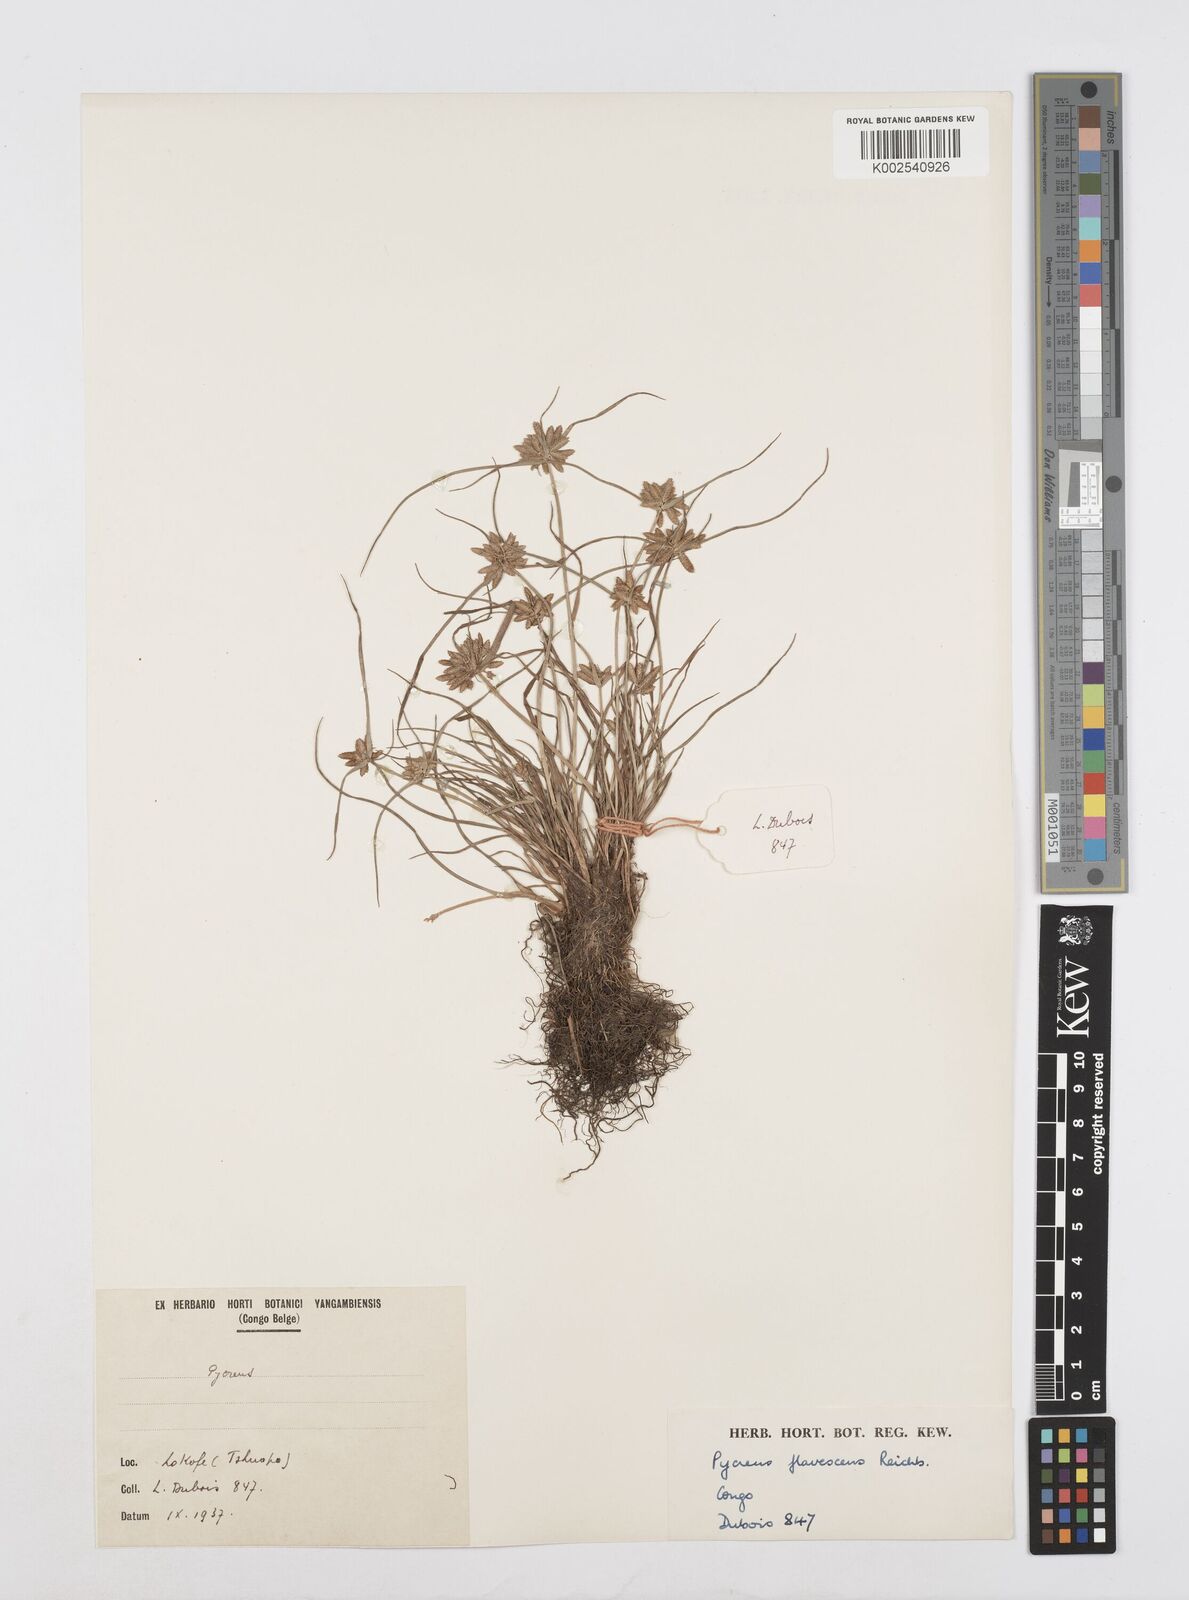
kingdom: Plantae
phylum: Tracheophyta
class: Liliopsida
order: Poales
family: Cyperaceae
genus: Cyperus
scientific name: Cyperus flavescens
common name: Yellow galingale
